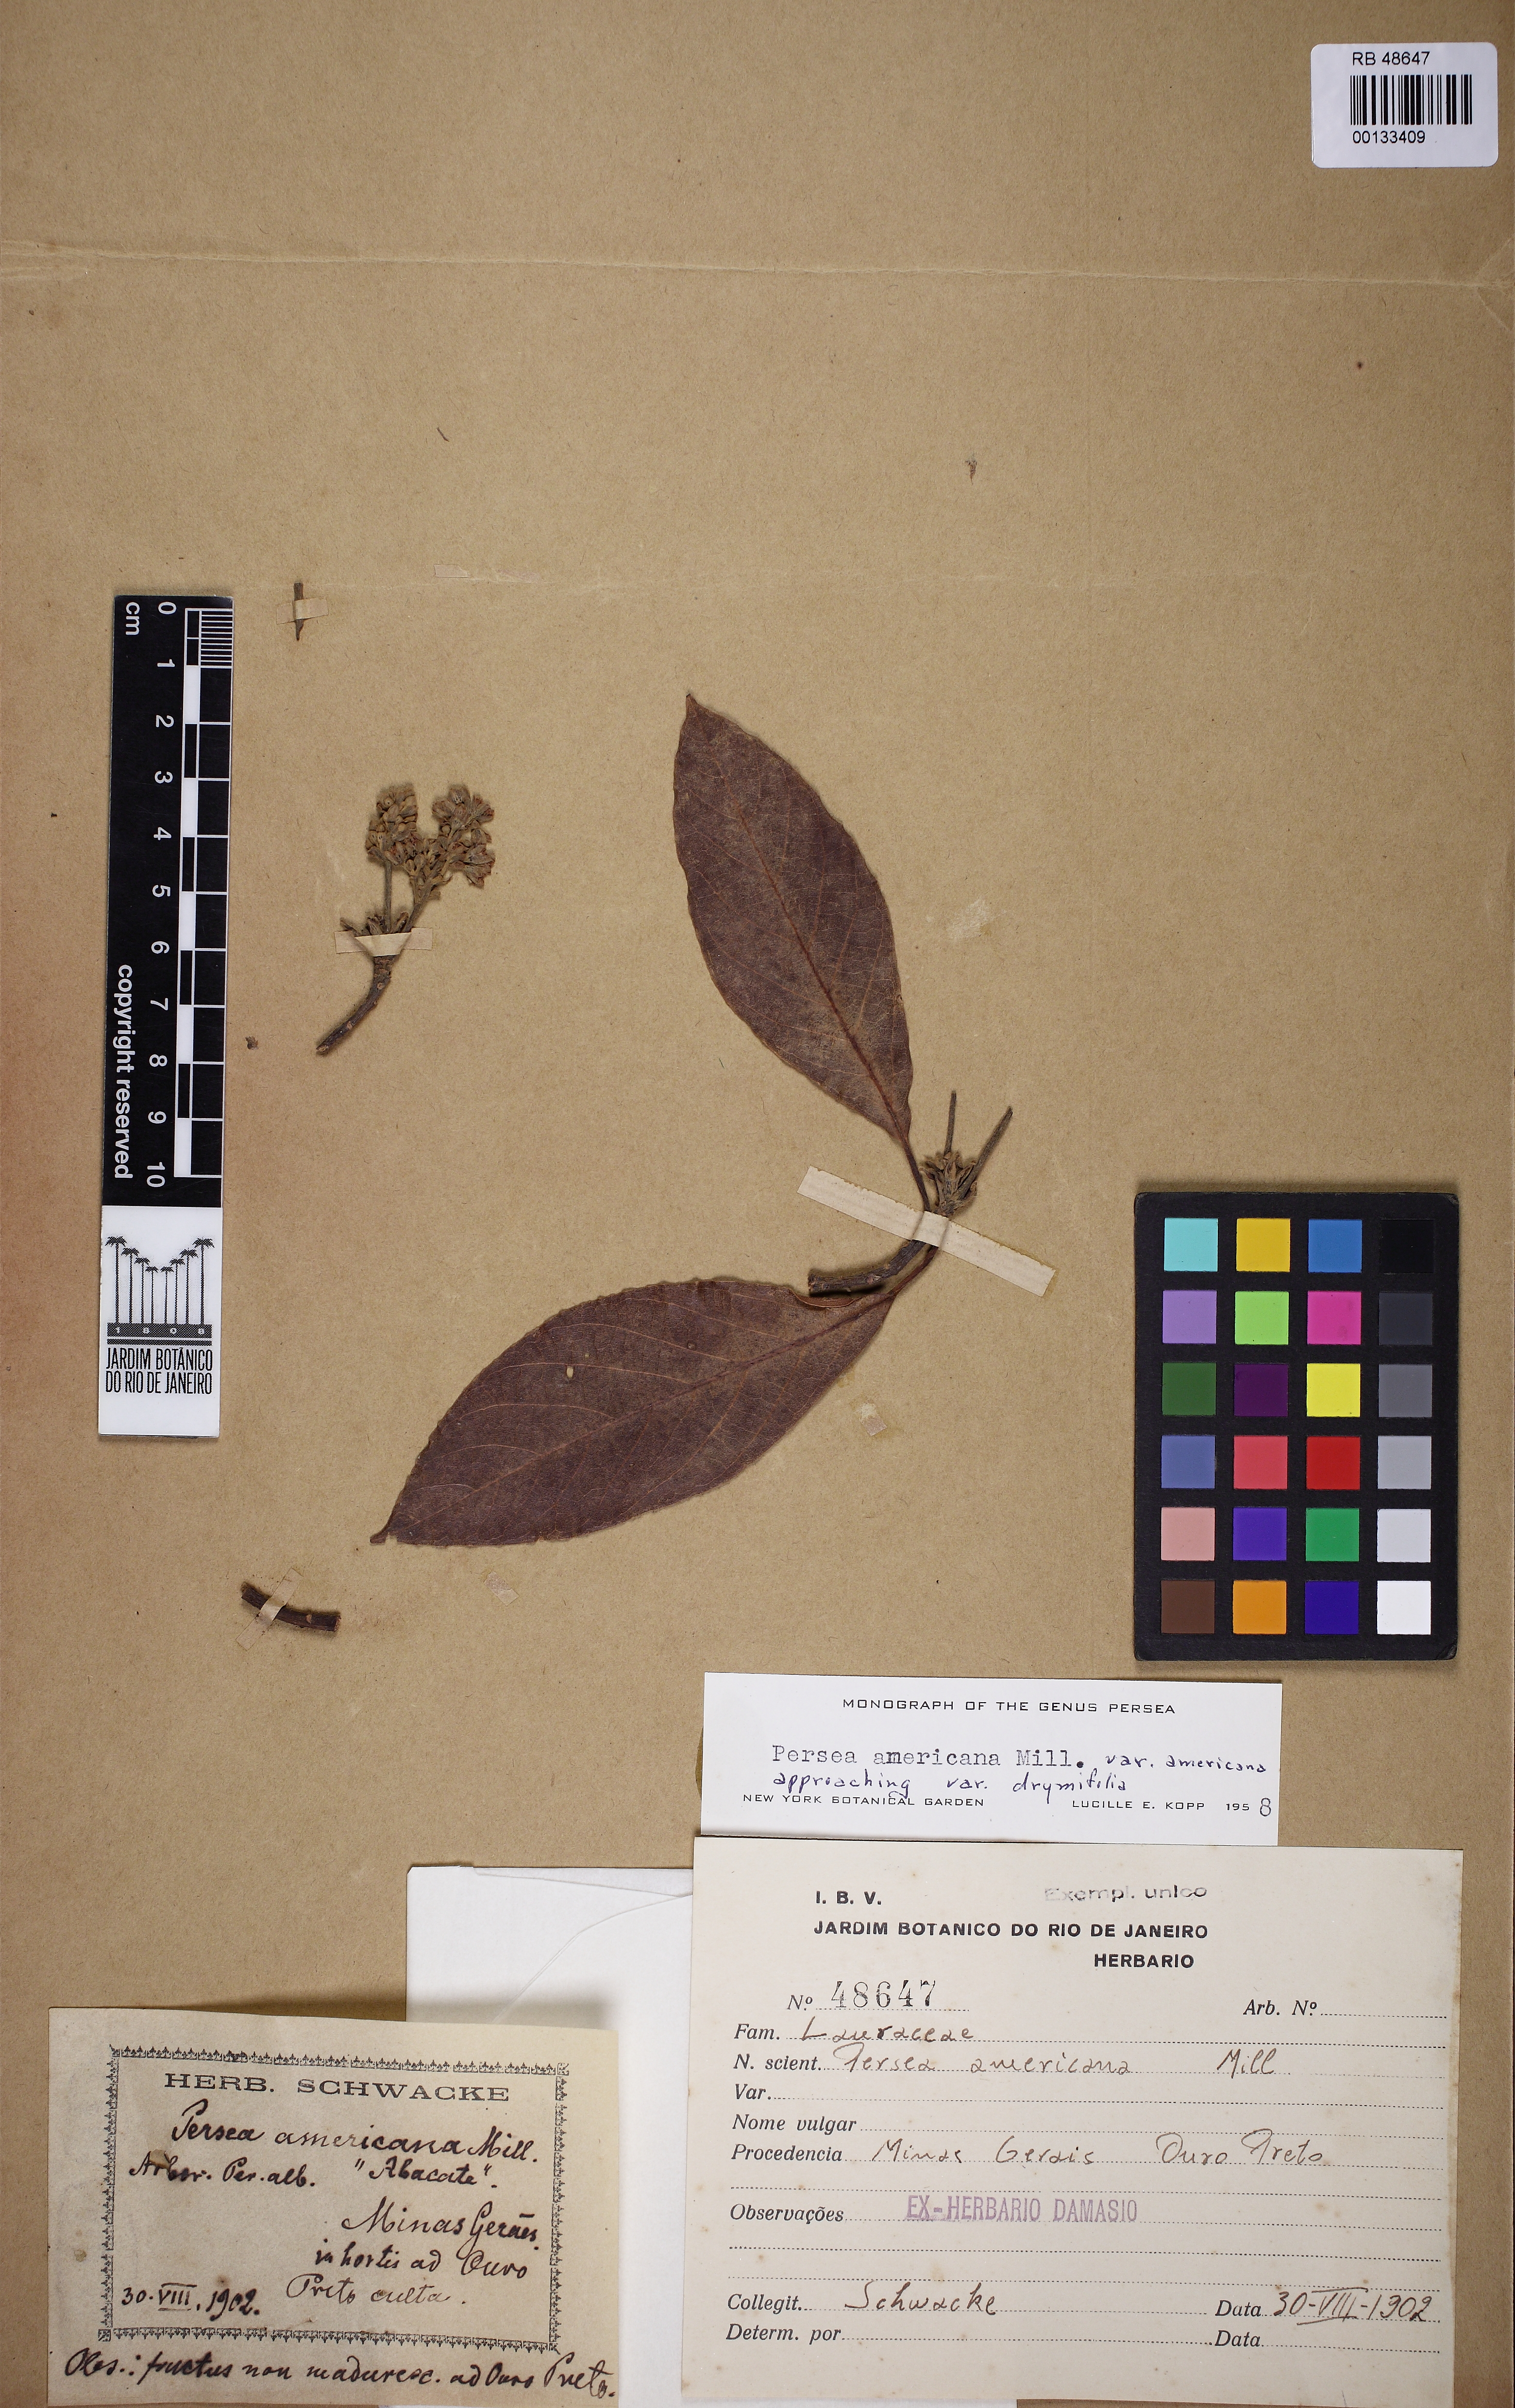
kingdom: Plantae
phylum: Tracheophyta
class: Magnoliopsida
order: Laurales
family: Lauraceae
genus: Persea
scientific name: Persea americana
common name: Avocado
